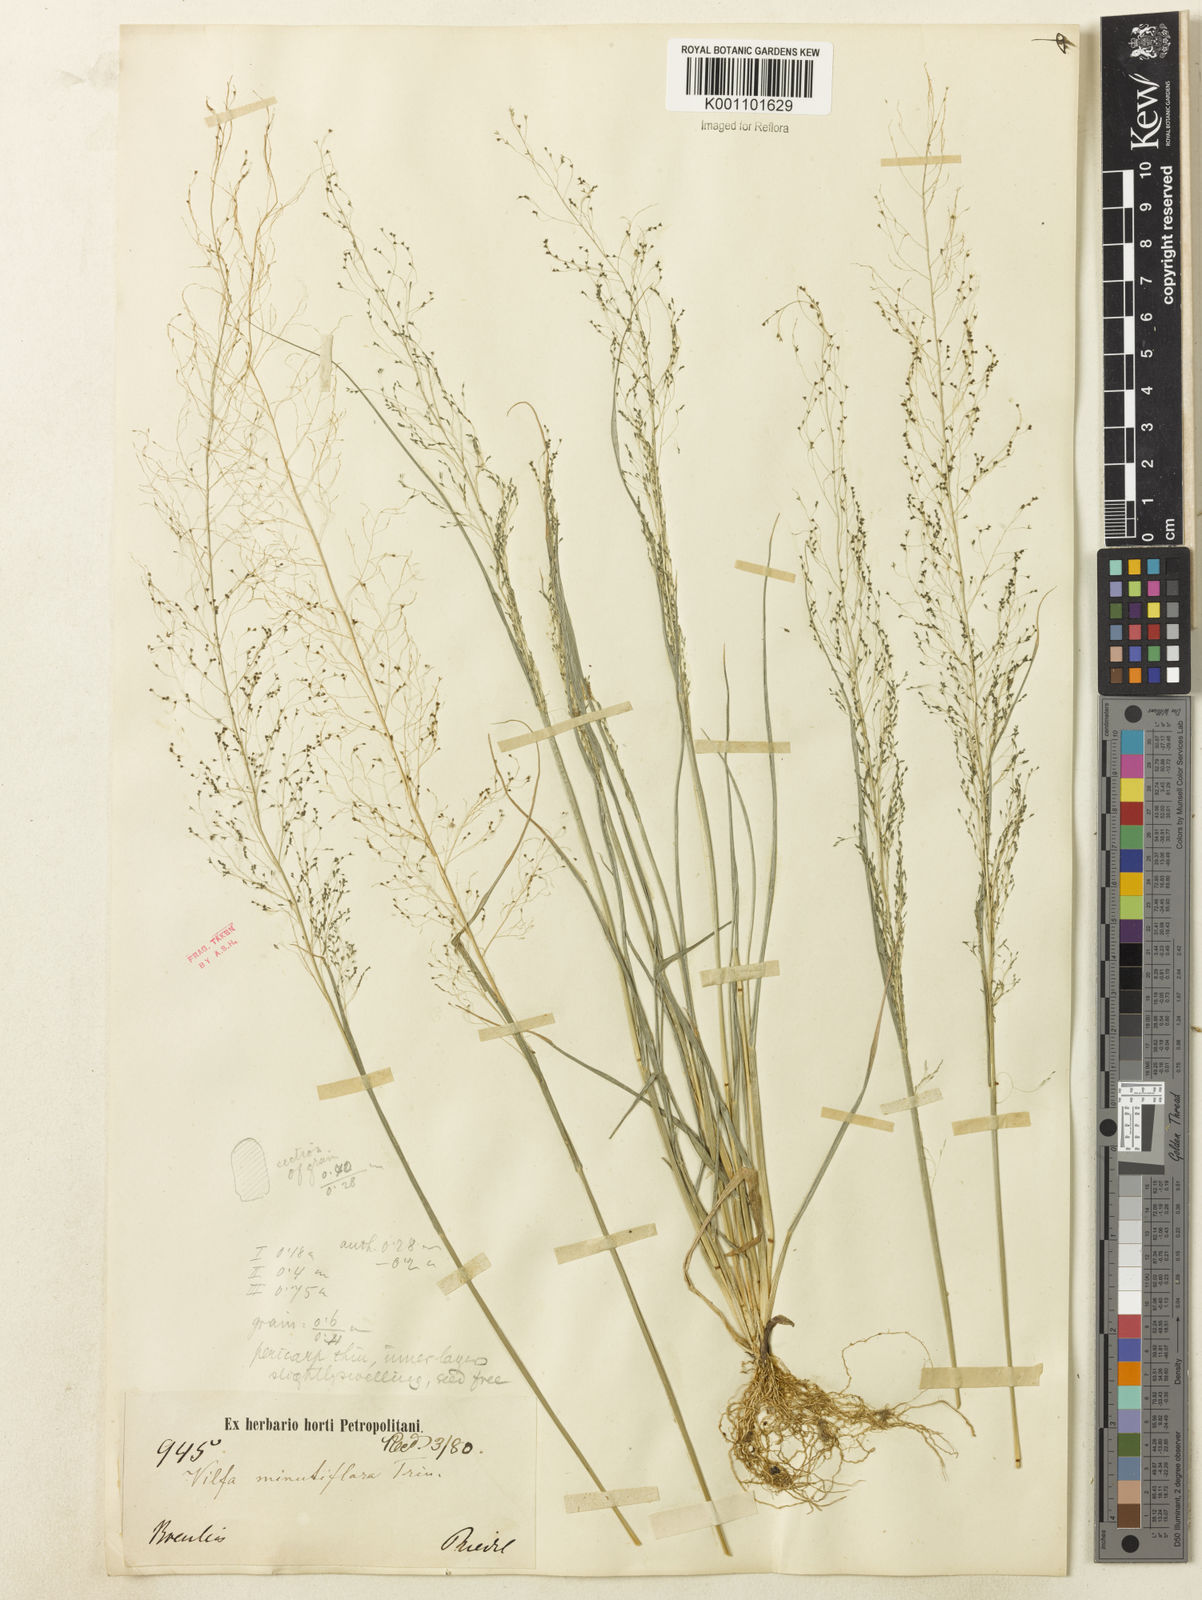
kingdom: Plantae
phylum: Tracheophyta
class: Liliopsida
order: Poales
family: Poaceae
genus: Sporobolus
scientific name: Sporobolus tenuissimus
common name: Tropical dropseed
